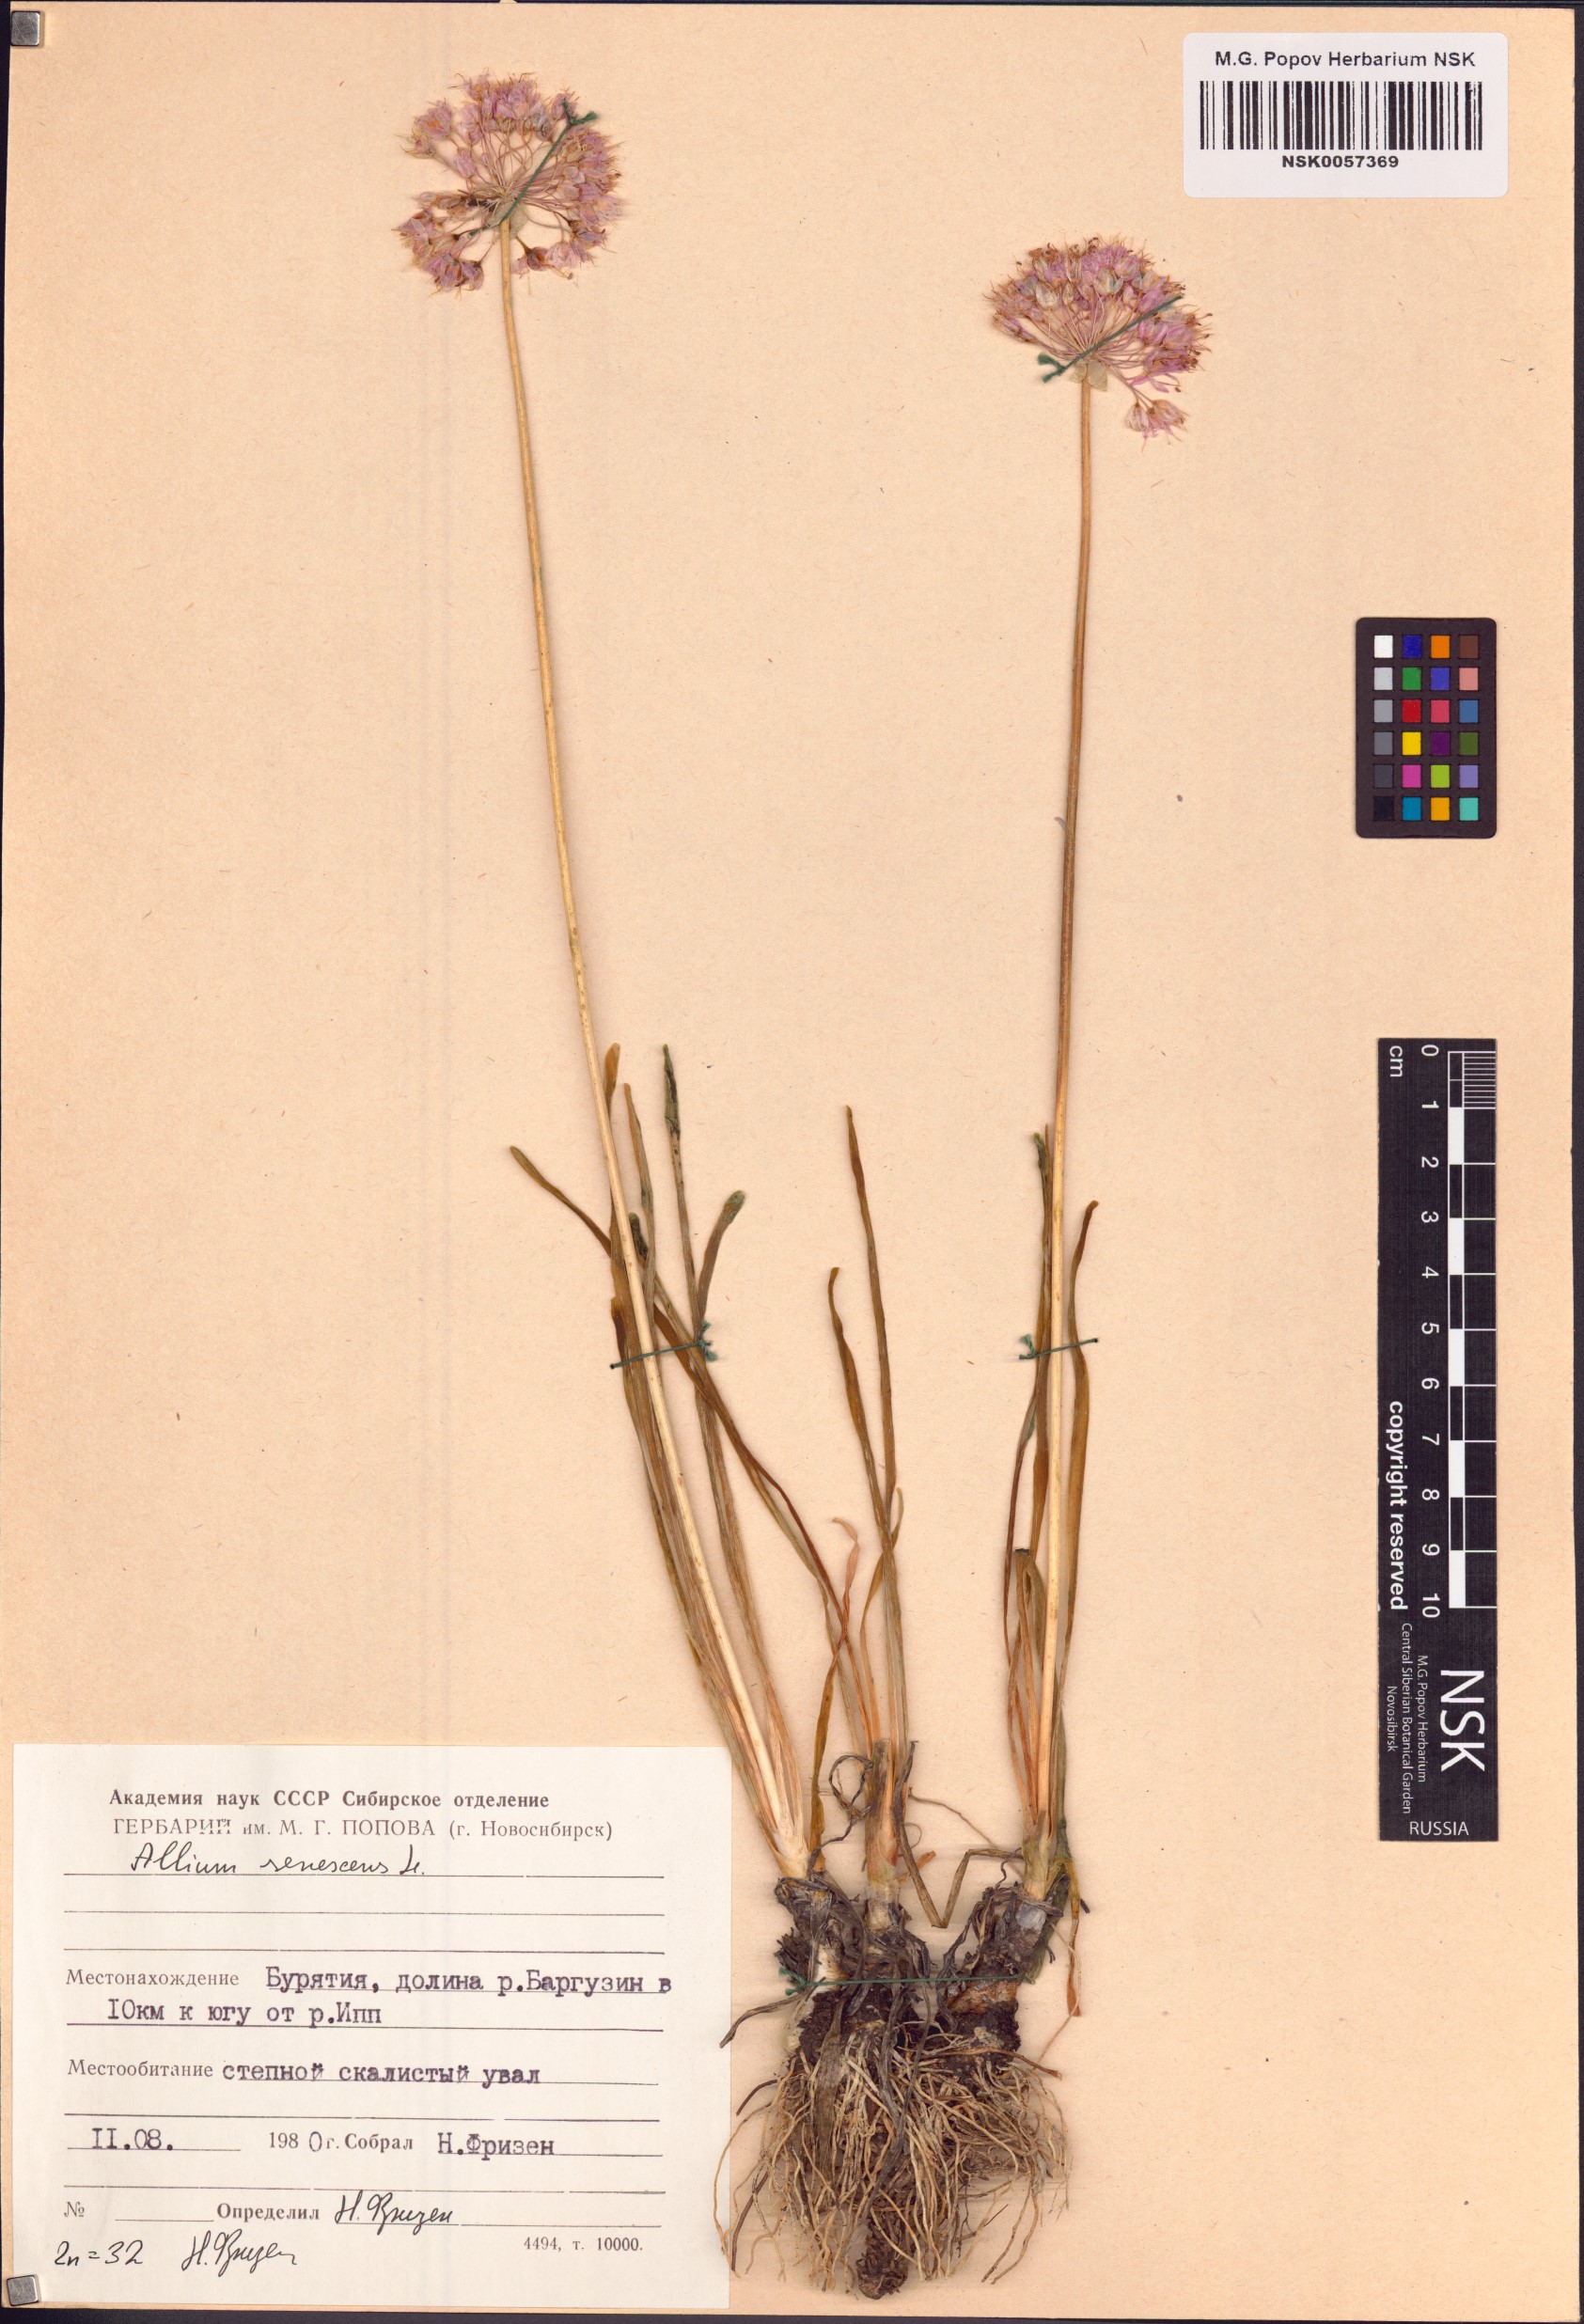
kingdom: Plantae
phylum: Tracheophyta
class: Liliopsida
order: Asparagales
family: Amaryllidaceae
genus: Allium
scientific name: Allium senescens
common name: German garlic
